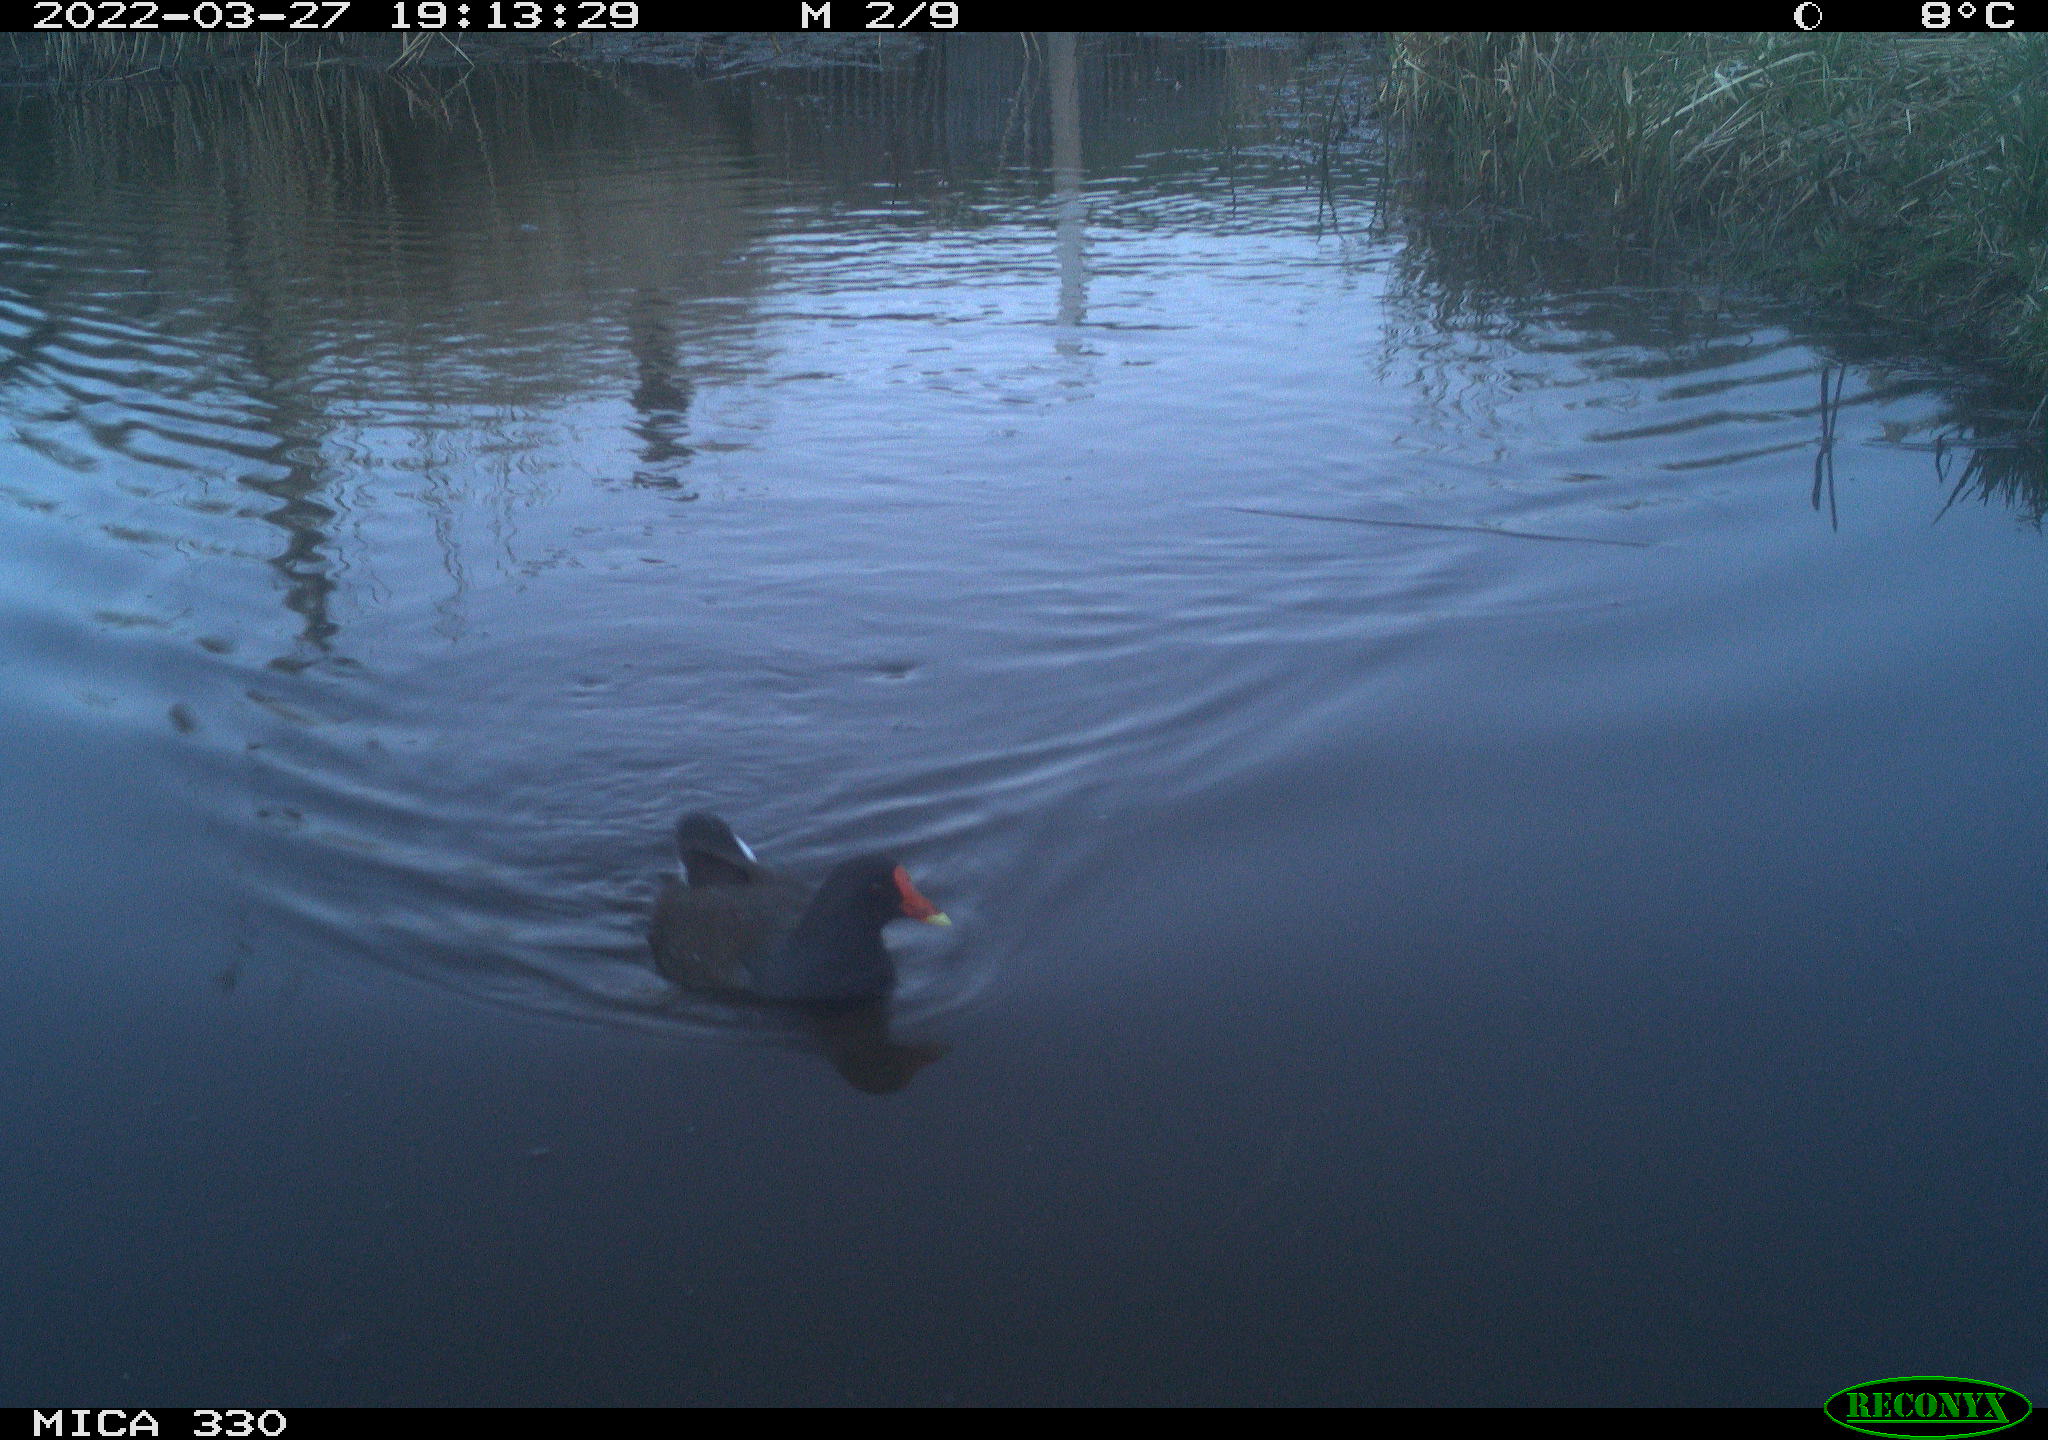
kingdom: Animalia
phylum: Chordata
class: Aves
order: Gruiformes
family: Rallidae
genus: Gallinula
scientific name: Gallinula chloropus
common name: Common moorhen
